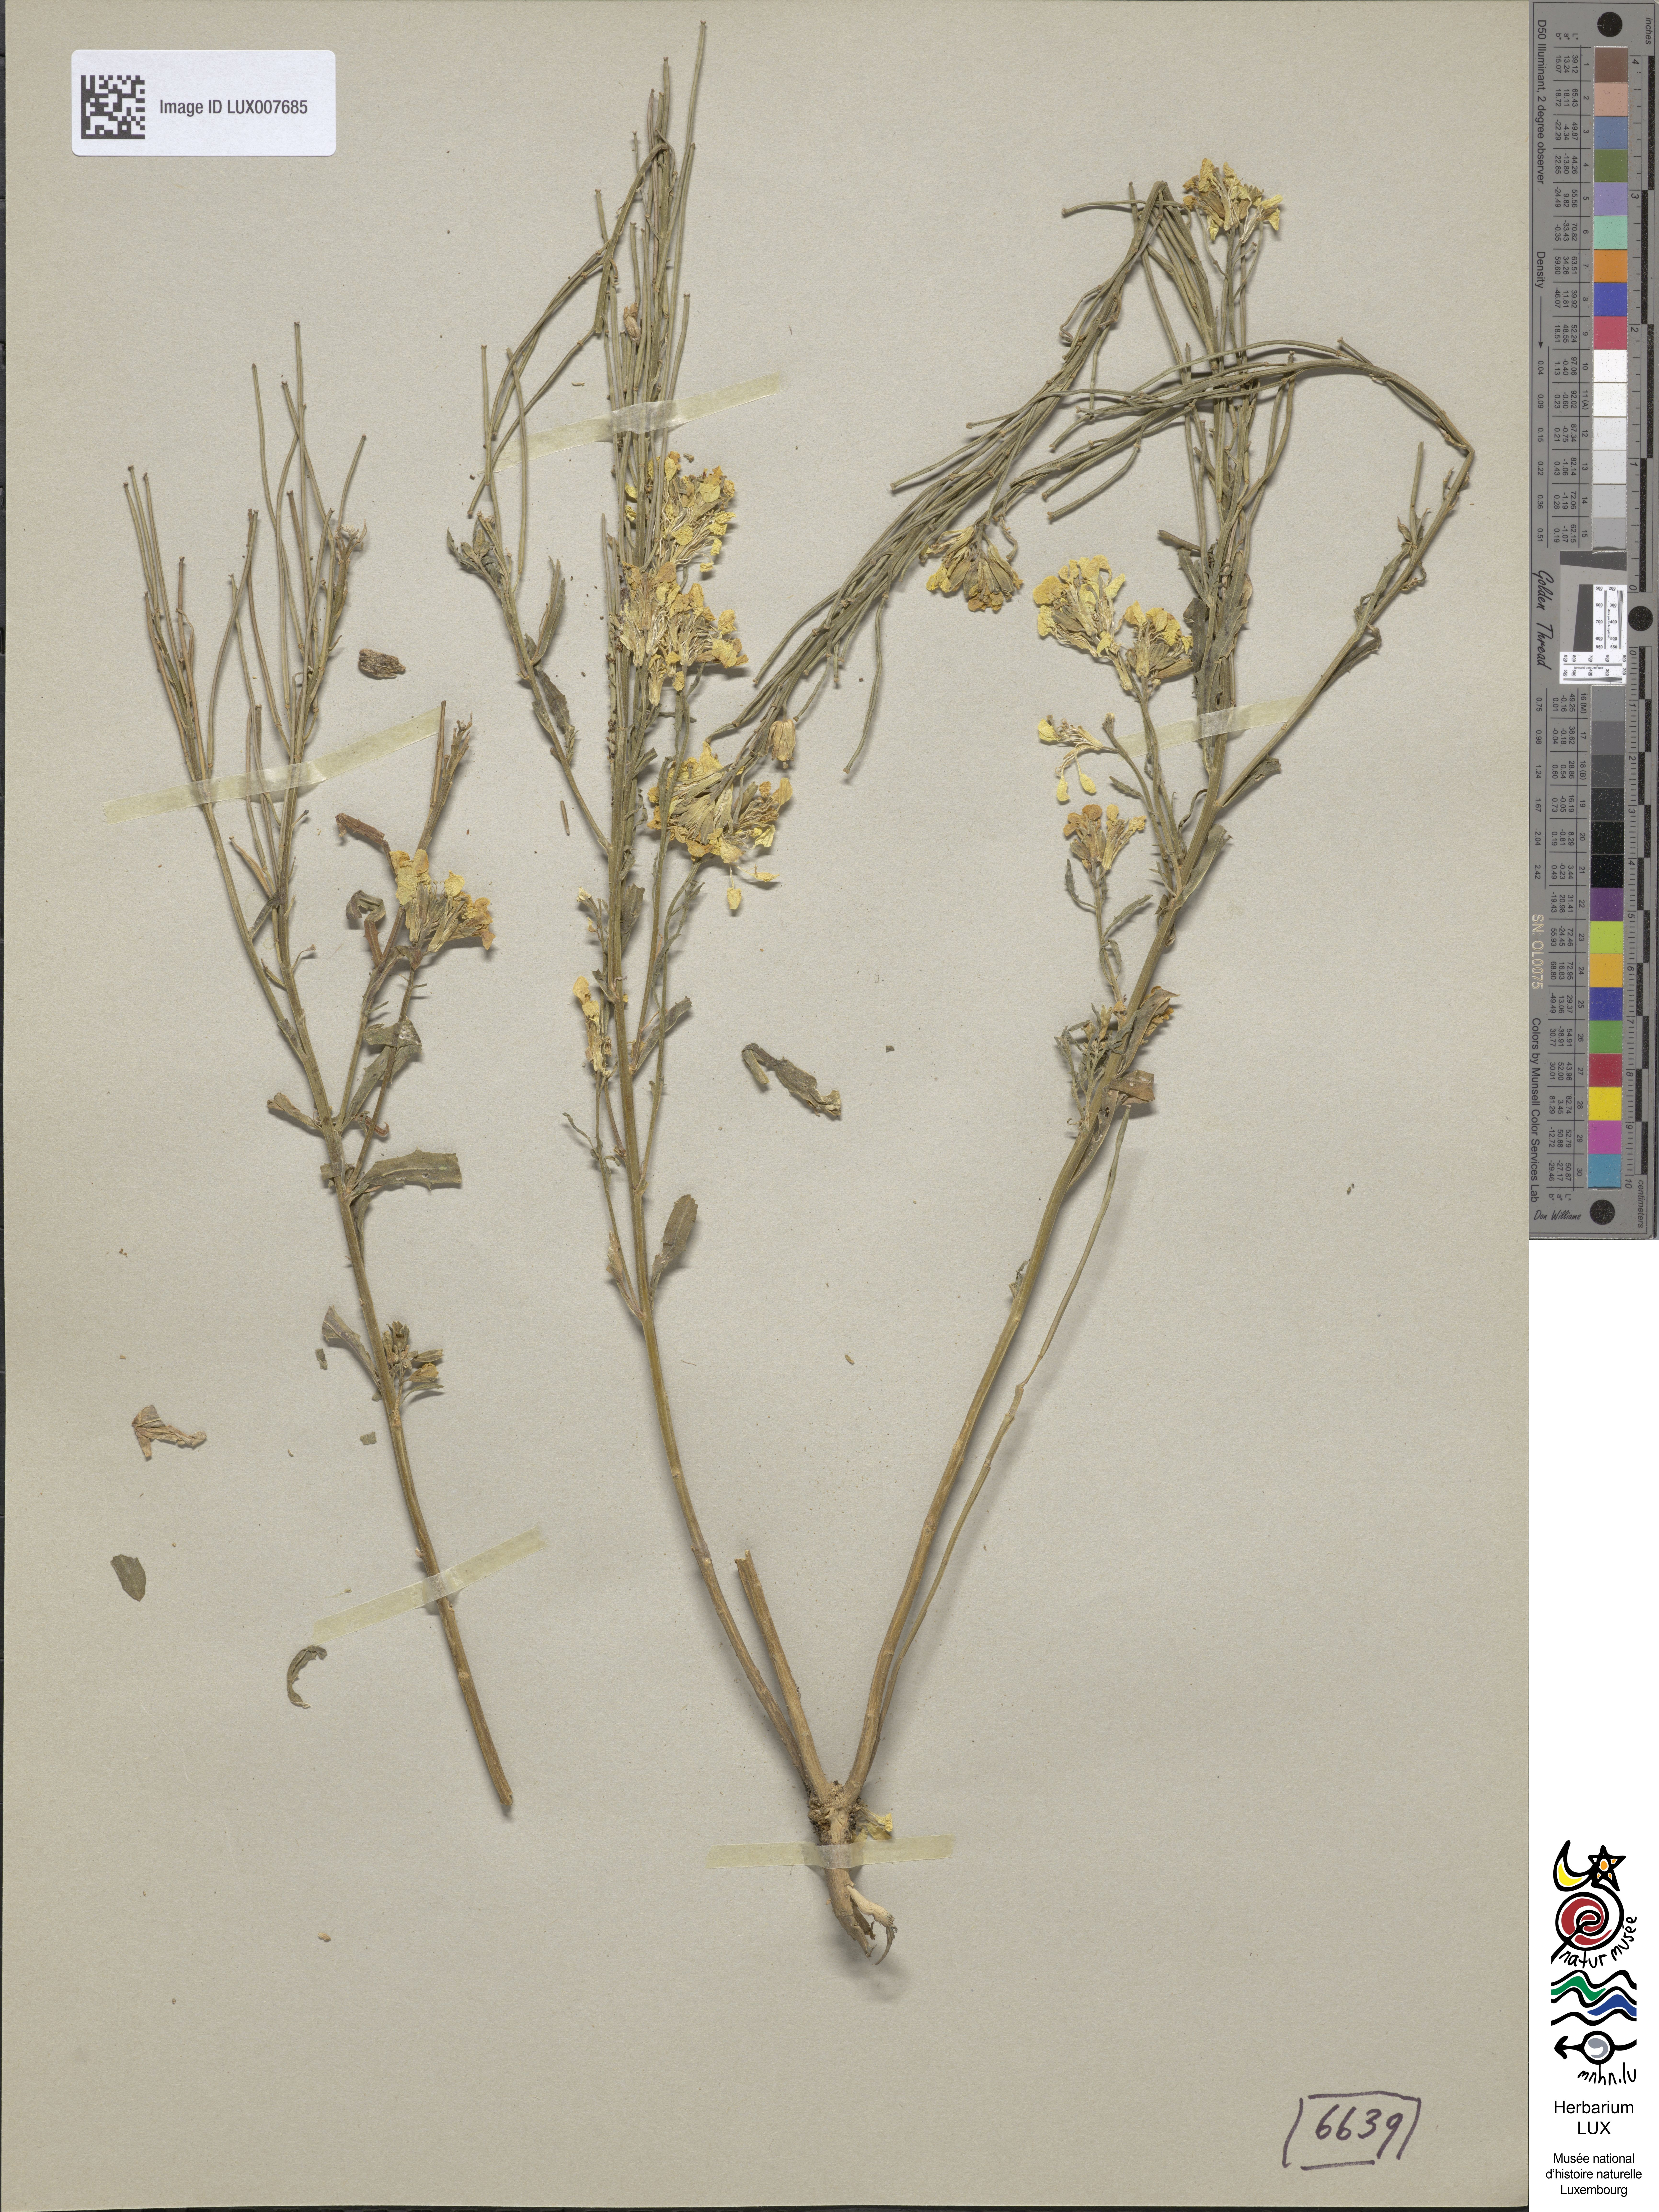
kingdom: Plantae
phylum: Tracheophyta
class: Magnoliopsida
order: Brassicales
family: Brassicaceae
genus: Erysimum
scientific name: Erysimum crepidifolium
